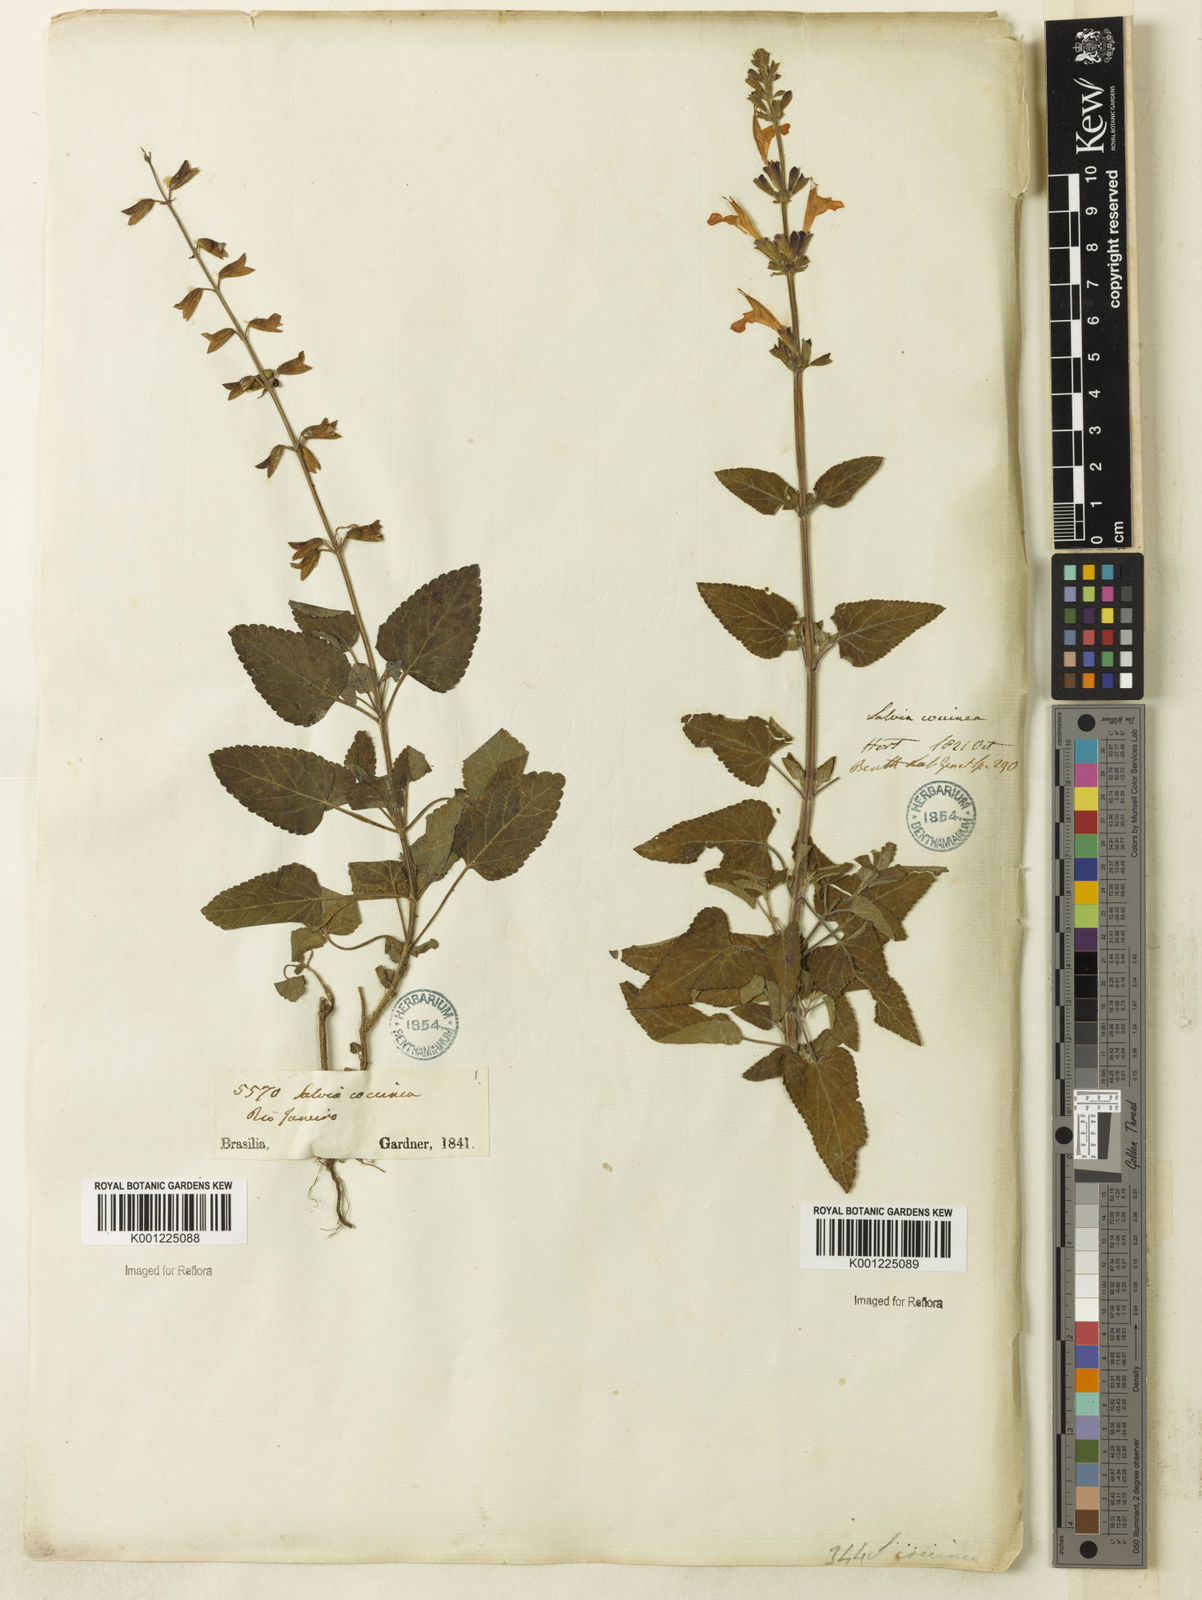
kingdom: Plantae
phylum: Tracheophyta
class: Magnoliopsida
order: Lamiales
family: Lamiaceae
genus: Salvia
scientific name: Salvia coccinea
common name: Blood sage
